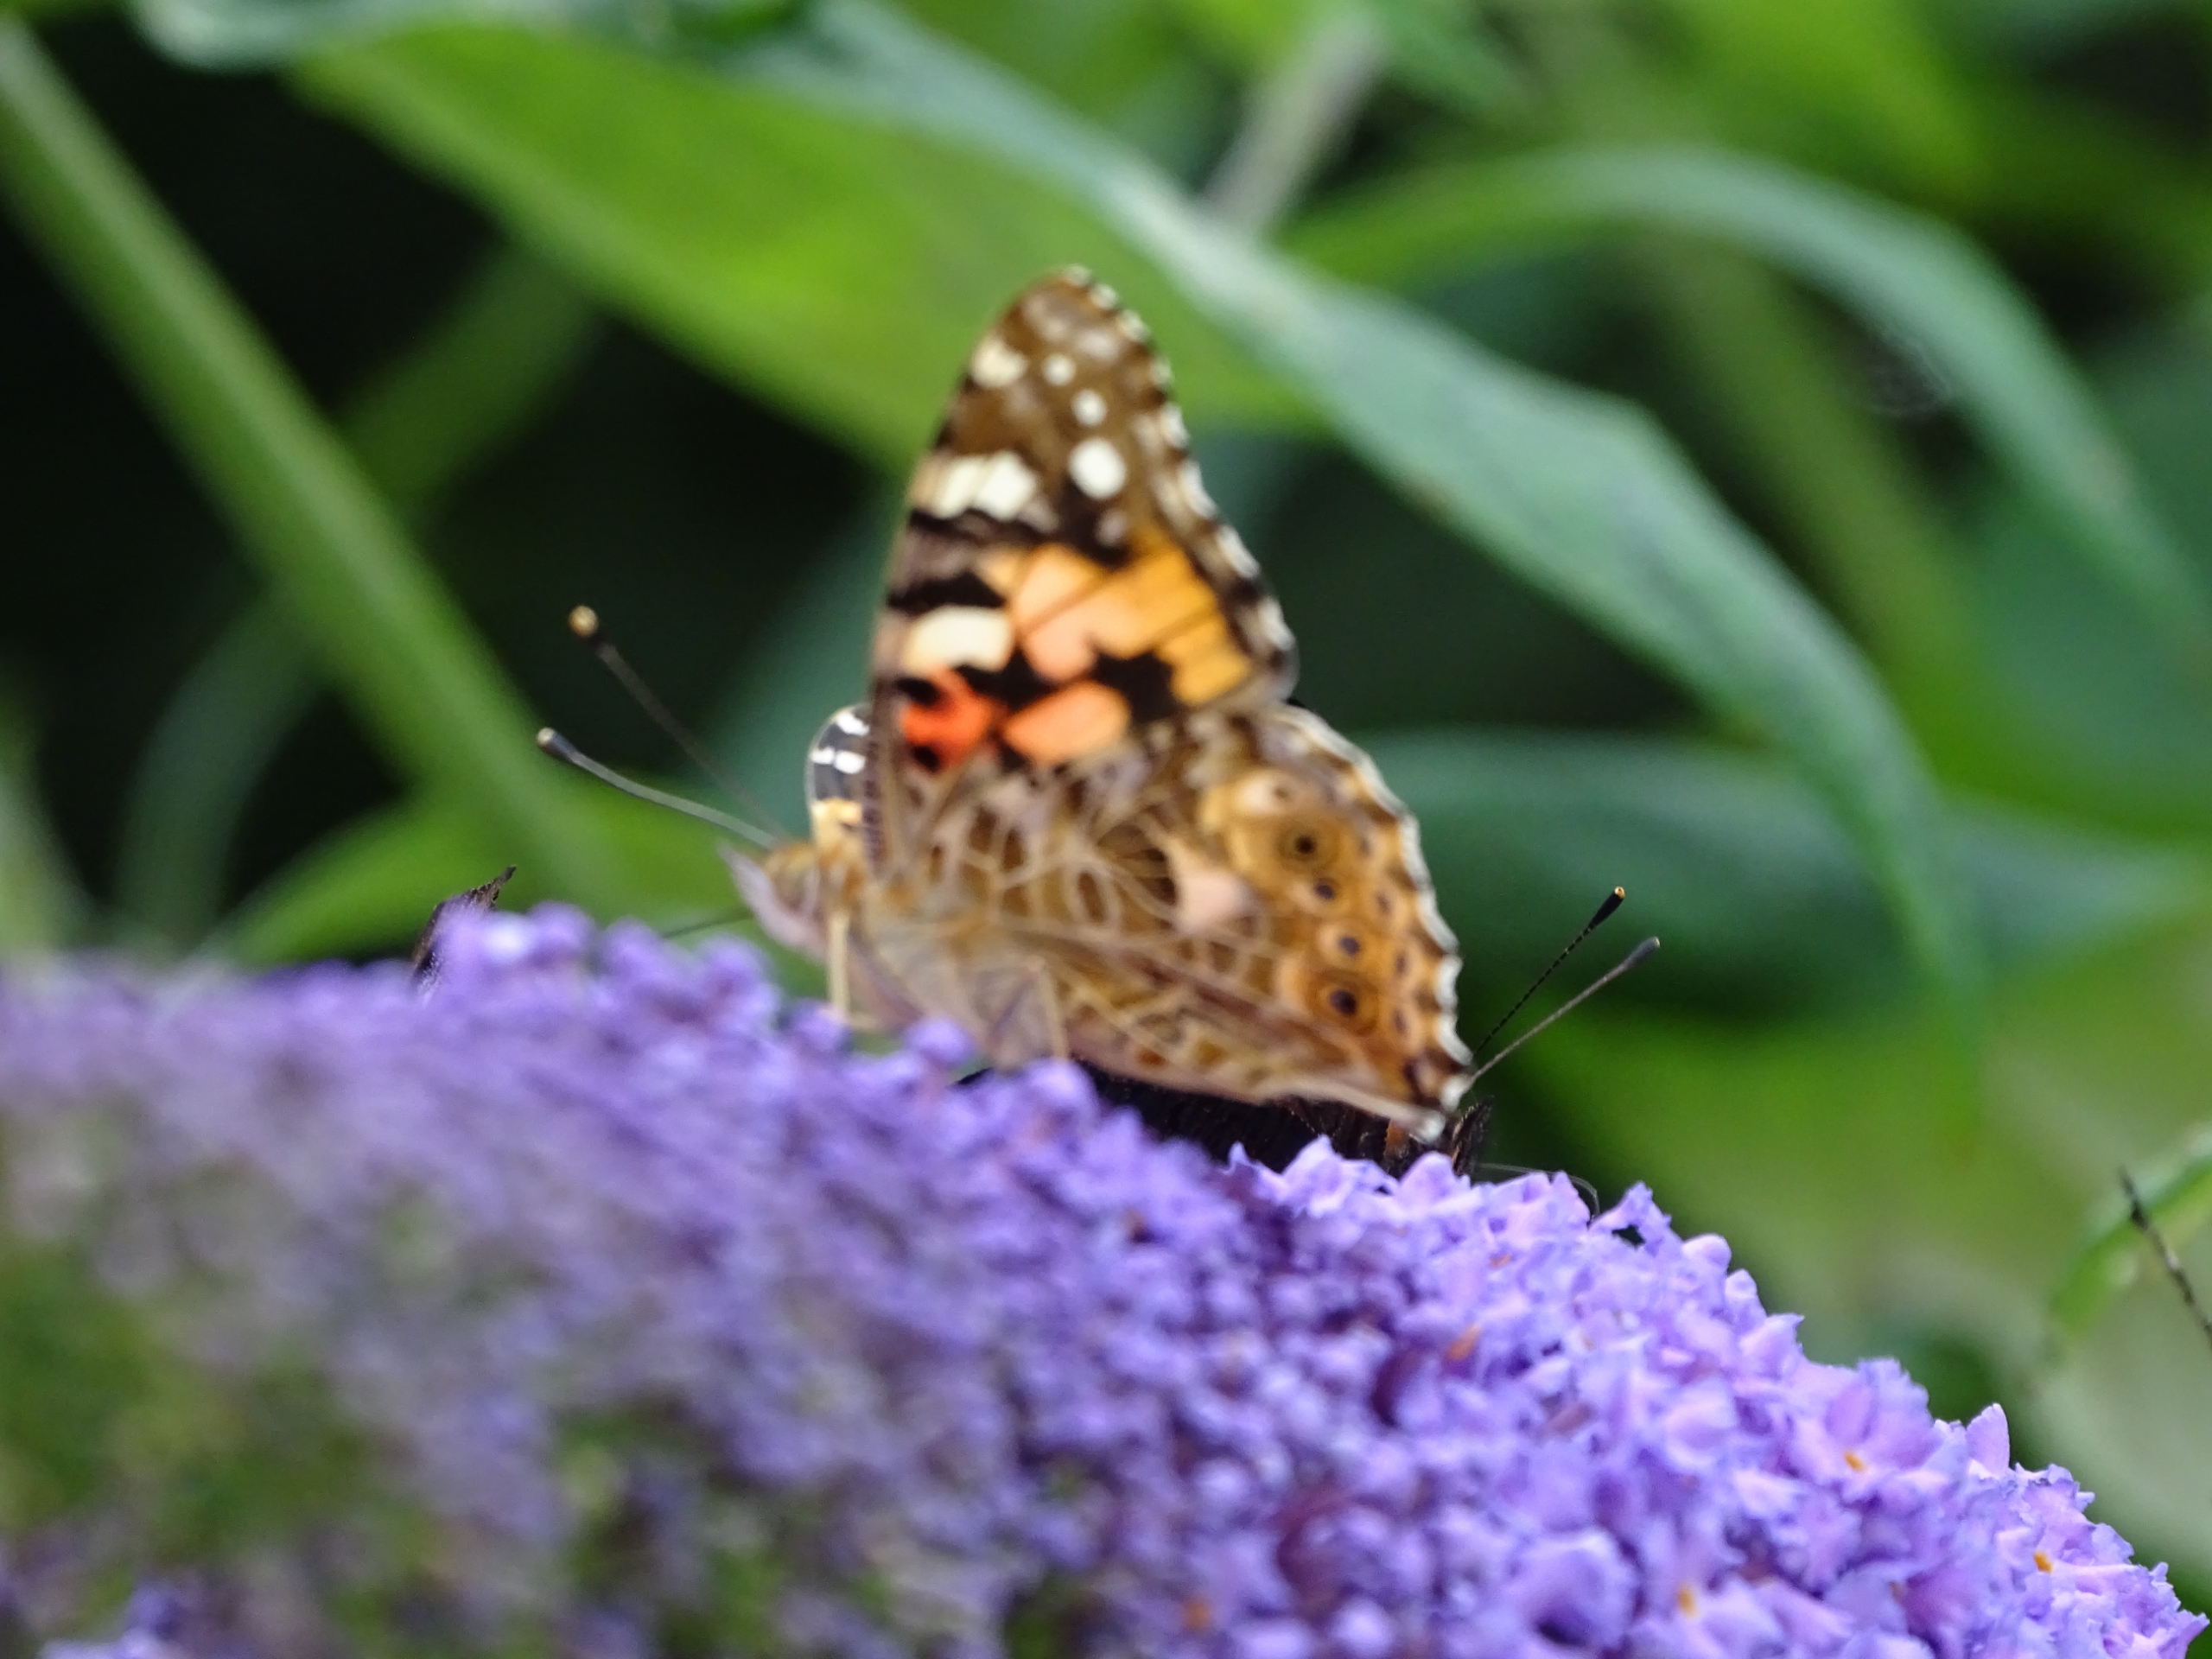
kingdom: Animalia
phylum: Arthropoda
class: Insecta
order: Lepidoptera
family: Nymphalidae
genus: Vanessa
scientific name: Vanessa cardui
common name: Tidselsommerfugl
